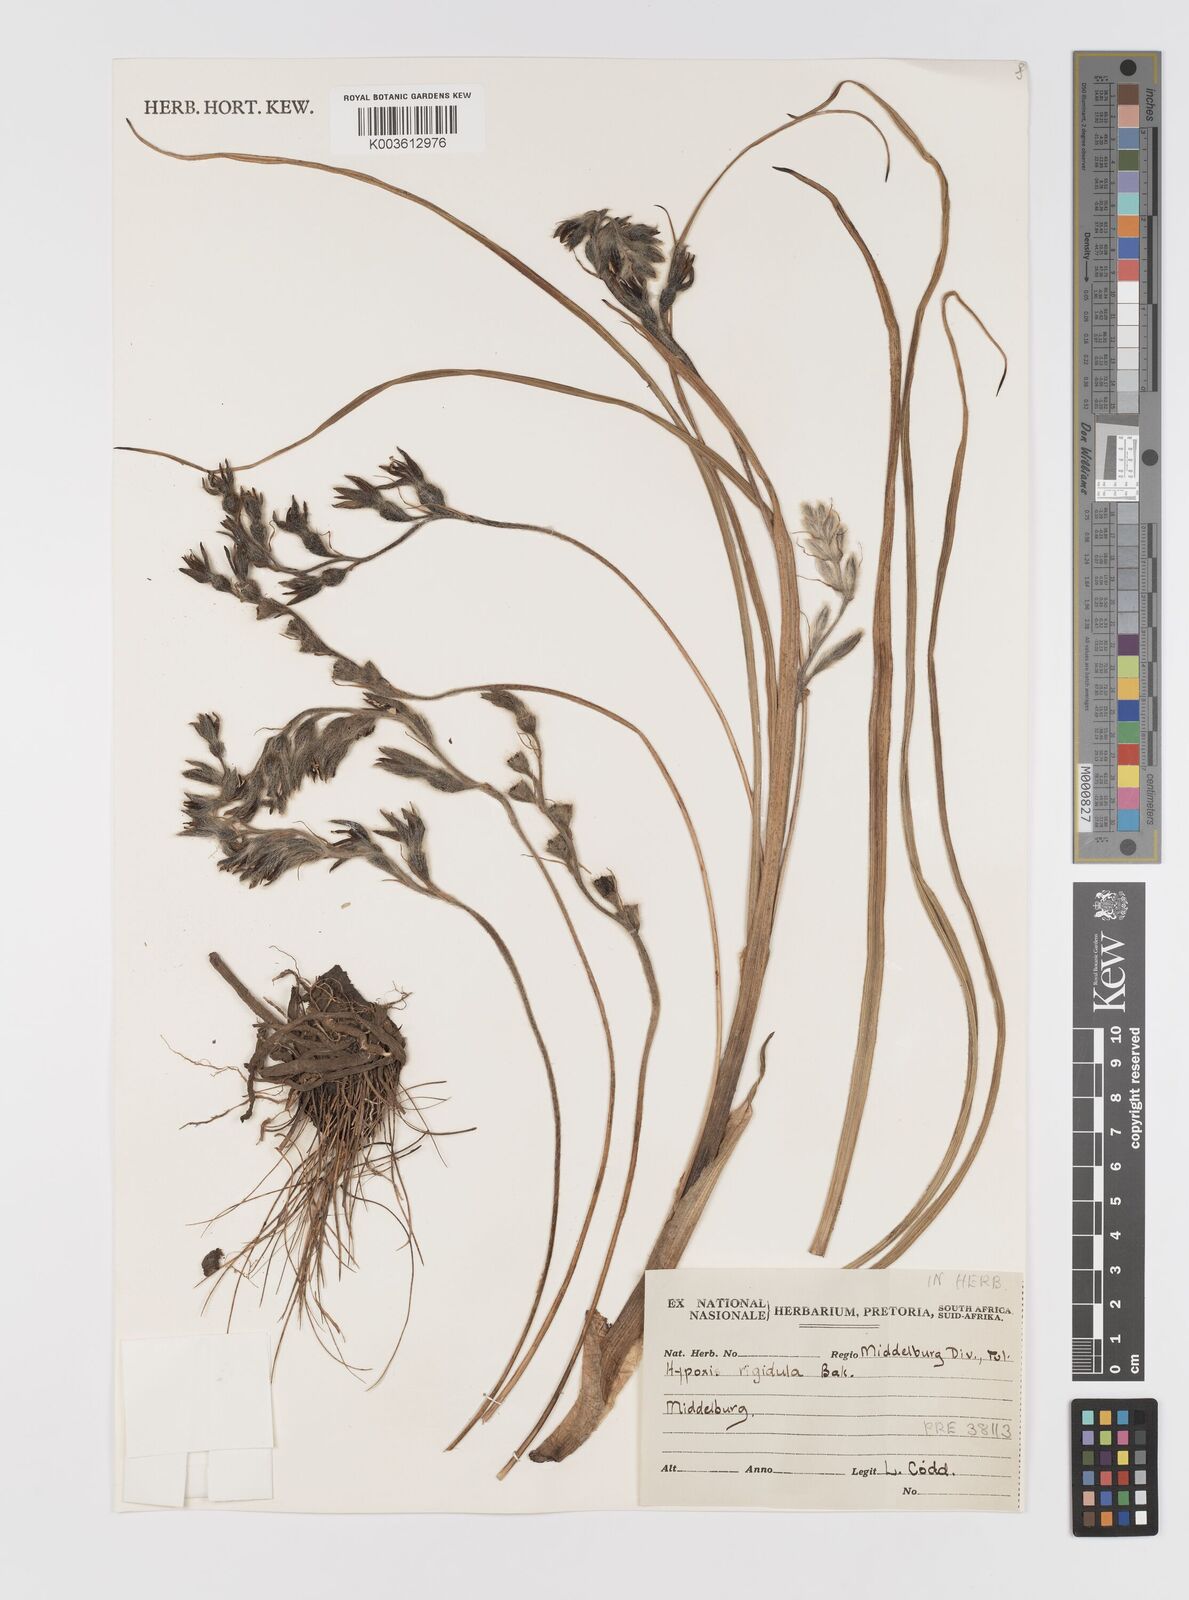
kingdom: Plantae
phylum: Tracheophyta
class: Liliopsida
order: Asparagales
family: Hypoxidaceae
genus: Hypoxis
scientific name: Hypoxis rigidula
